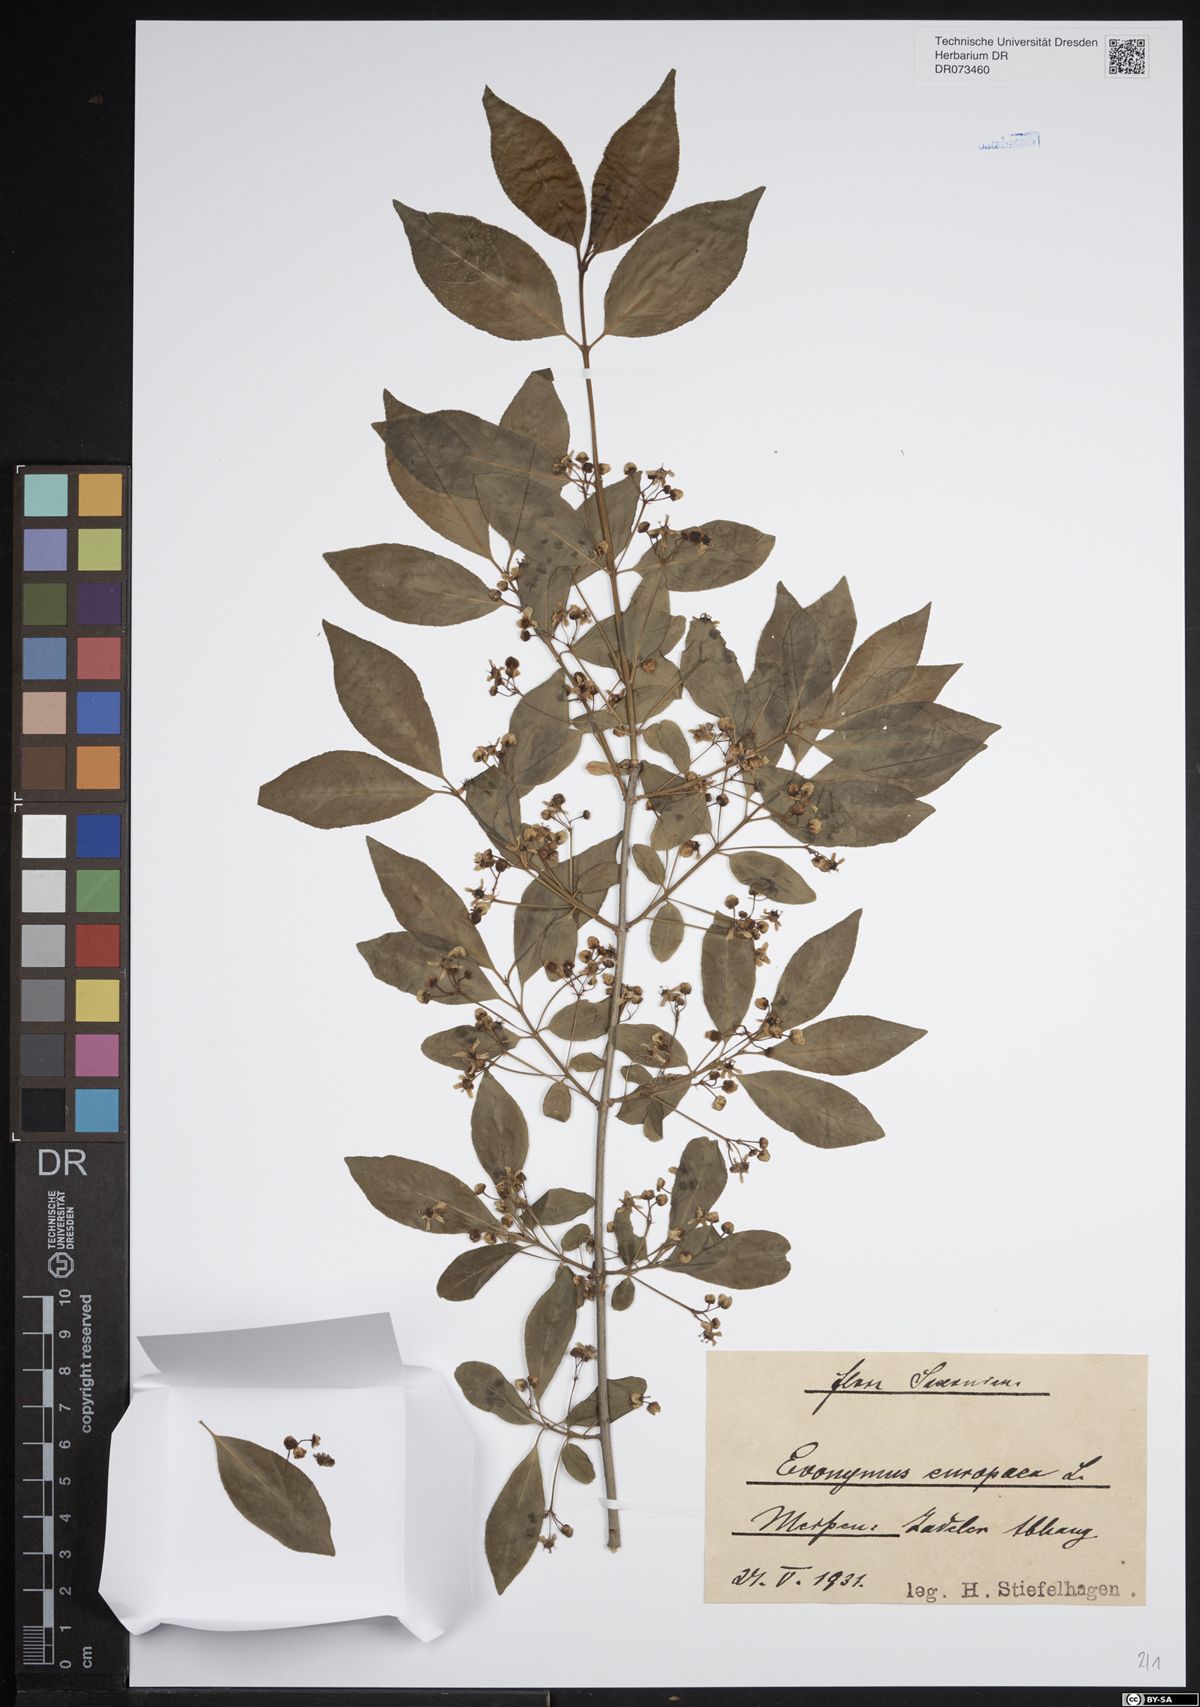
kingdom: Plantae
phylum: Tracheophyta
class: Magnoliopsida
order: Celastrales
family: Celastraceae
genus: Euonymus
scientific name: Euonymus europaeus
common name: Spindle
